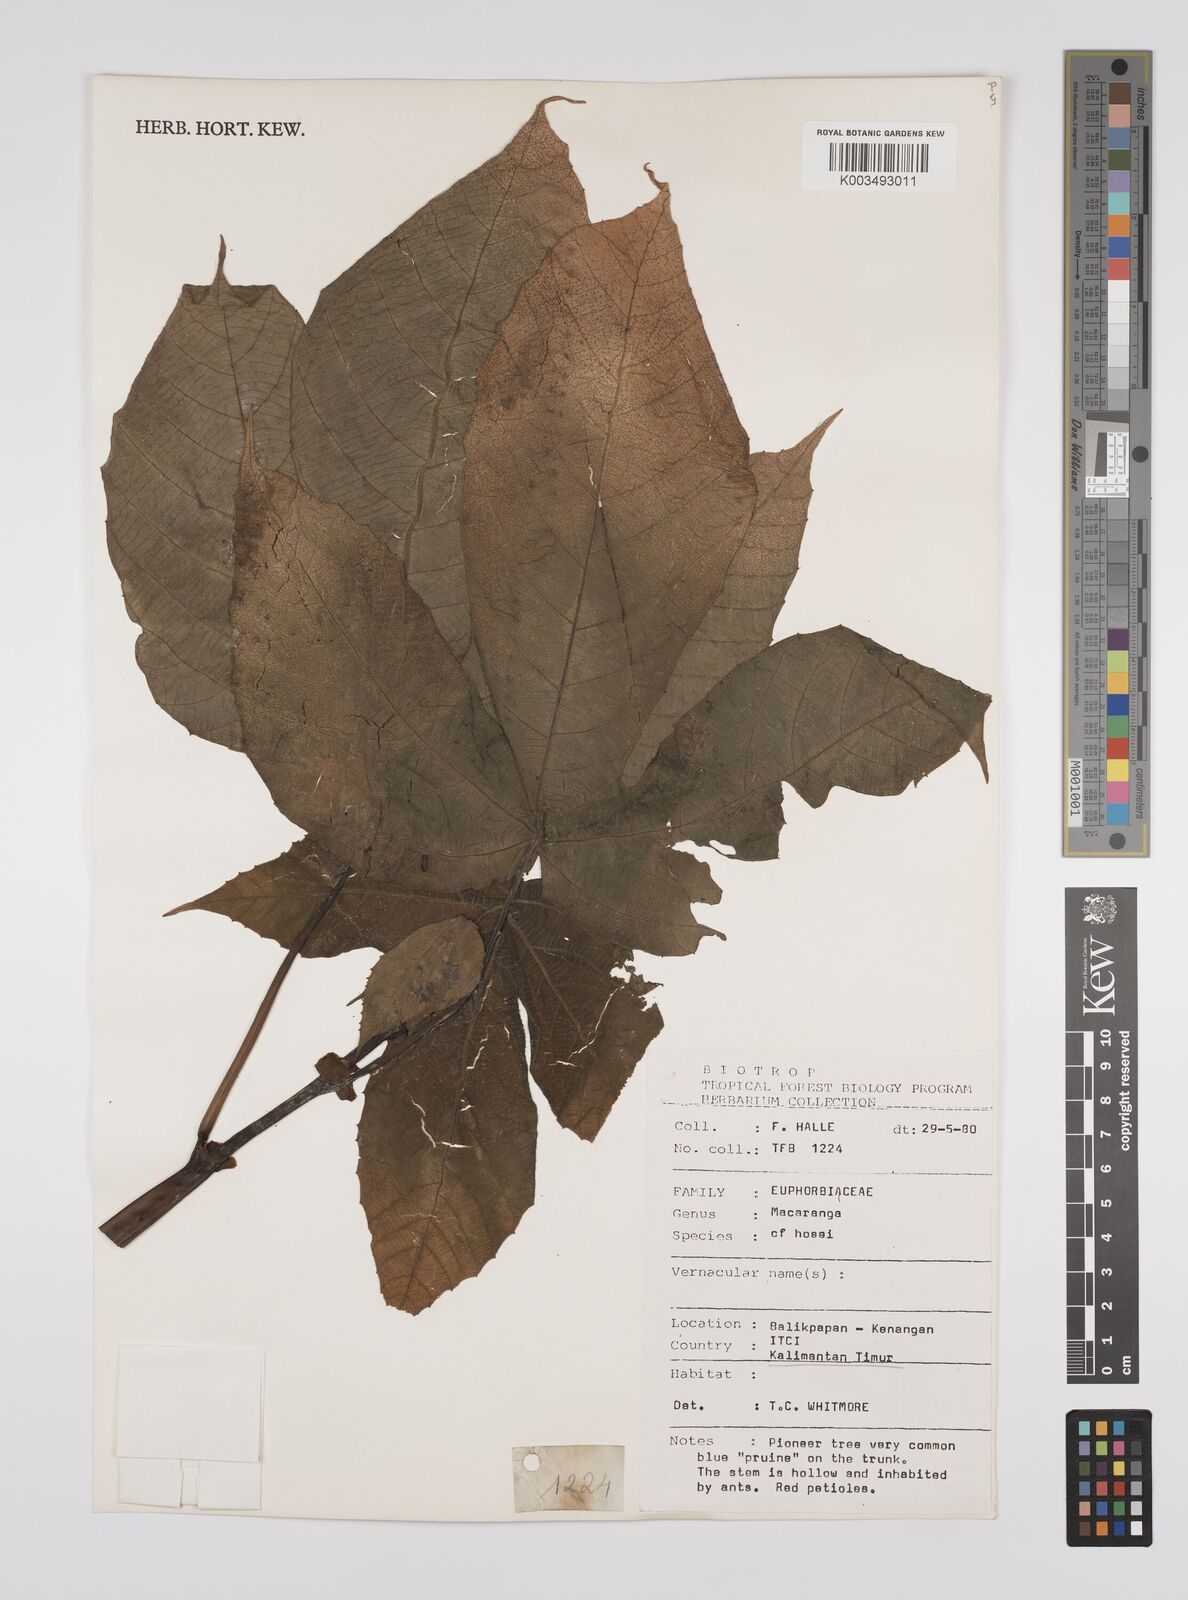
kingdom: Plantae
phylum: Tracheophyta
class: Magnoliopsida
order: Malpighiales
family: Euphorbiaceae
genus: Macaranga
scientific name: Macaranga hosei
